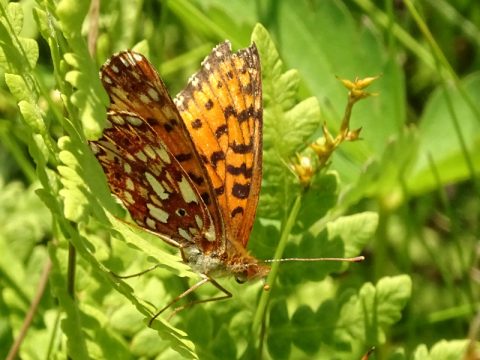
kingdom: Animalia
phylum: Arthropoda
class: Insecta
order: Lepidoptera
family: Nymphalidae
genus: Boloria
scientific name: Boloria selene
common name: Silver-bordered Fritillary
